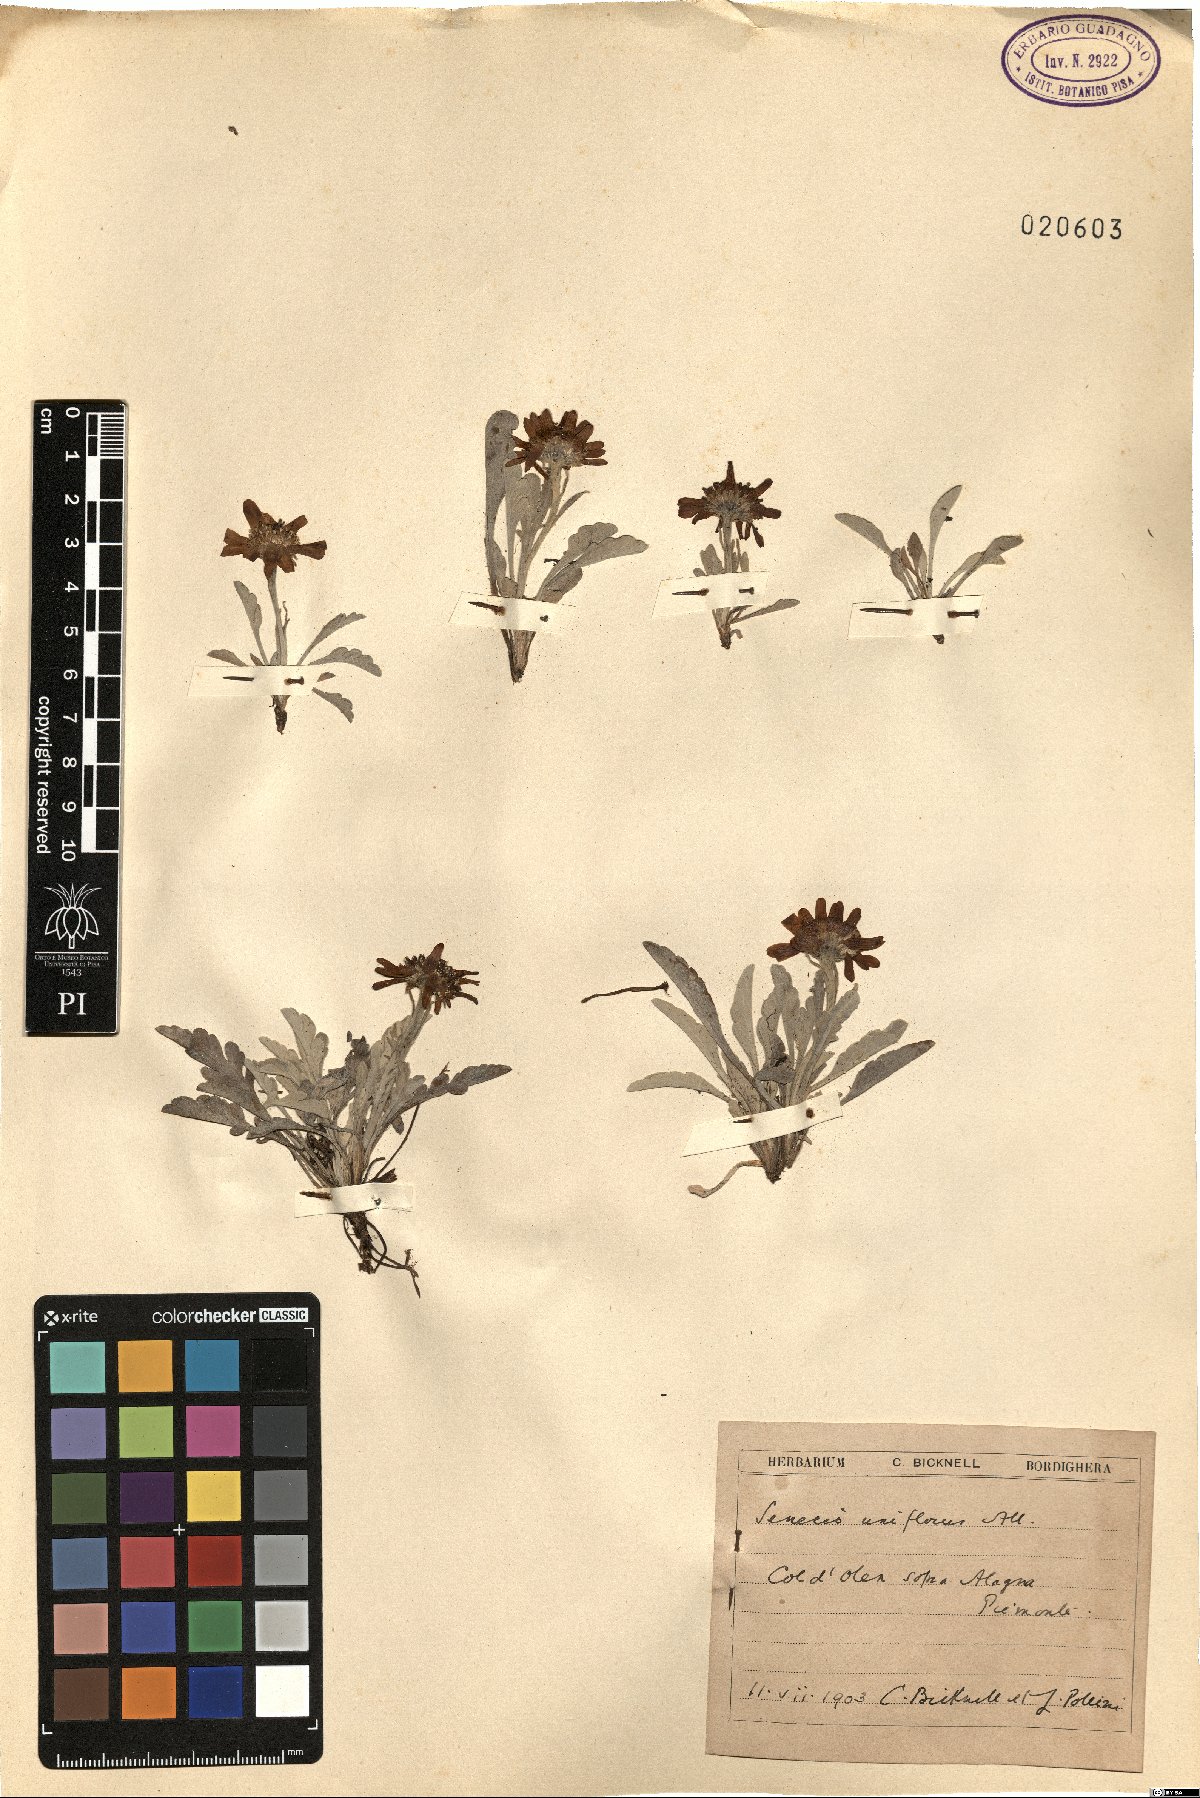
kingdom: Plantae
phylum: Tracheophyta
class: Magnoliopsida
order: Asterales
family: Asteraceae
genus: Jacobaea
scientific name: Jacobaea uniflora
